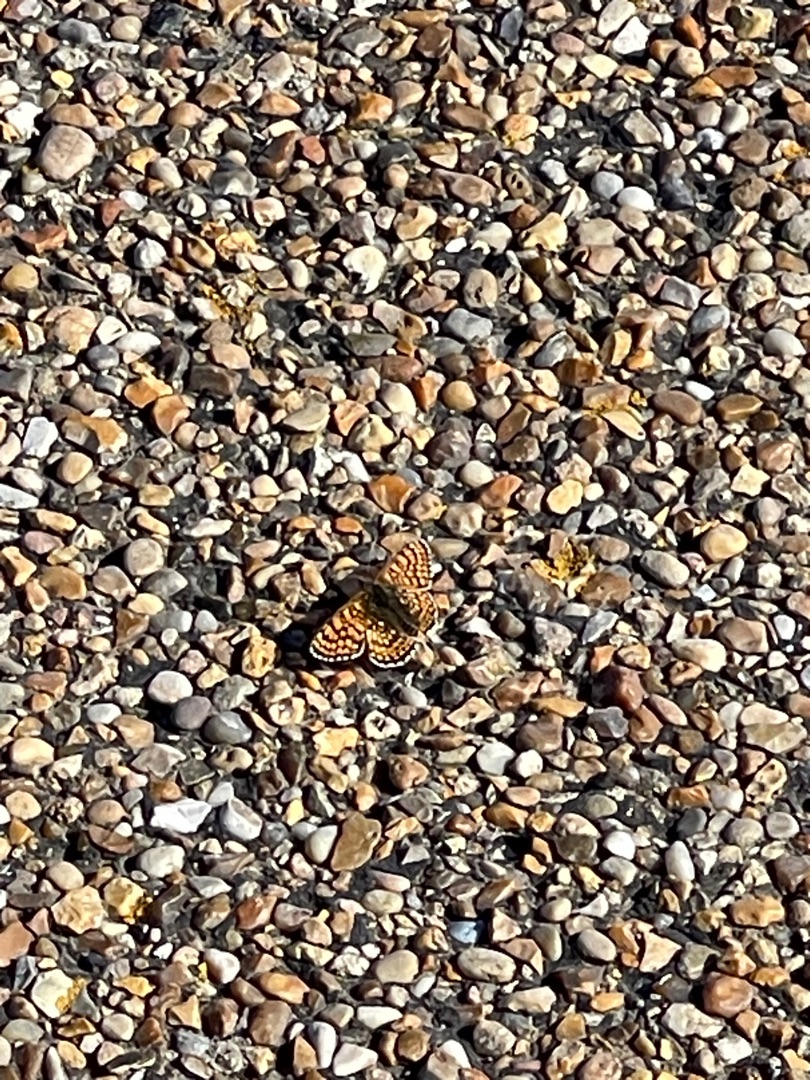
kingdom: Animalia
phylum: Arthropoda
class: Insecta
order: Lepidoptera
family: Nymphalidae
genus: Melitaea
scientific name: Melitaea cinxia
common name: Okkergul pletvinge
